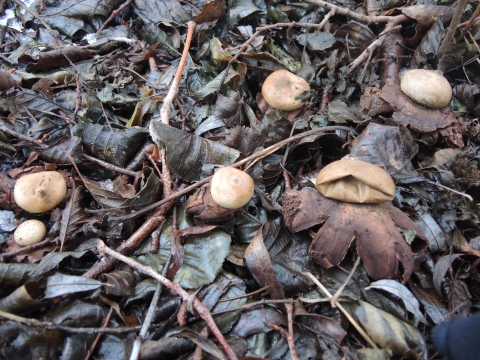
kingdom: Fungi
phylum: Basidiomycota
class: Agaricomycetes
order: Geastrales
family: Geastraceae
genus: Geastrum
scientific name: Geastrum michelianum
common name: kødet stjernebold
